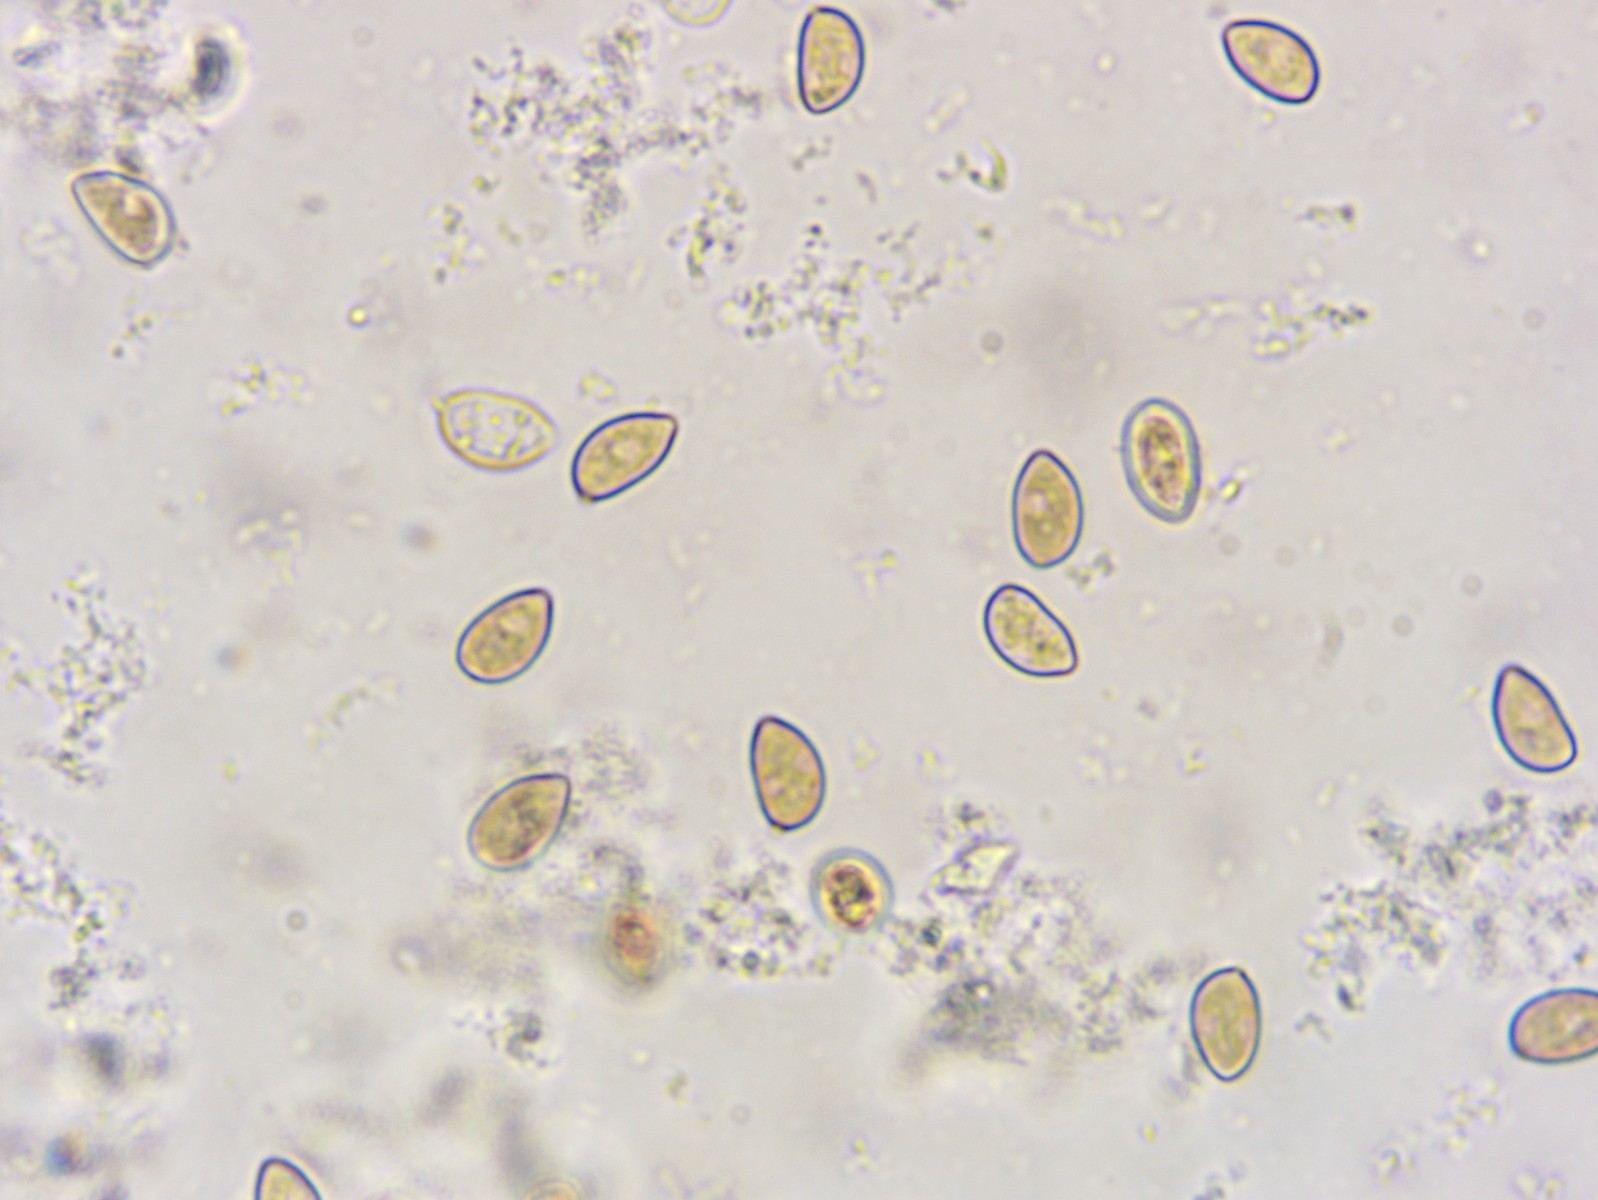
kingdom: Fungi
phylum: Basidiomycota
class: Agaricomycetes
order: Agaricales
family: Inocybaceae
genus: Inocybe
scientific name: Inocybe
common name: trævlhat
